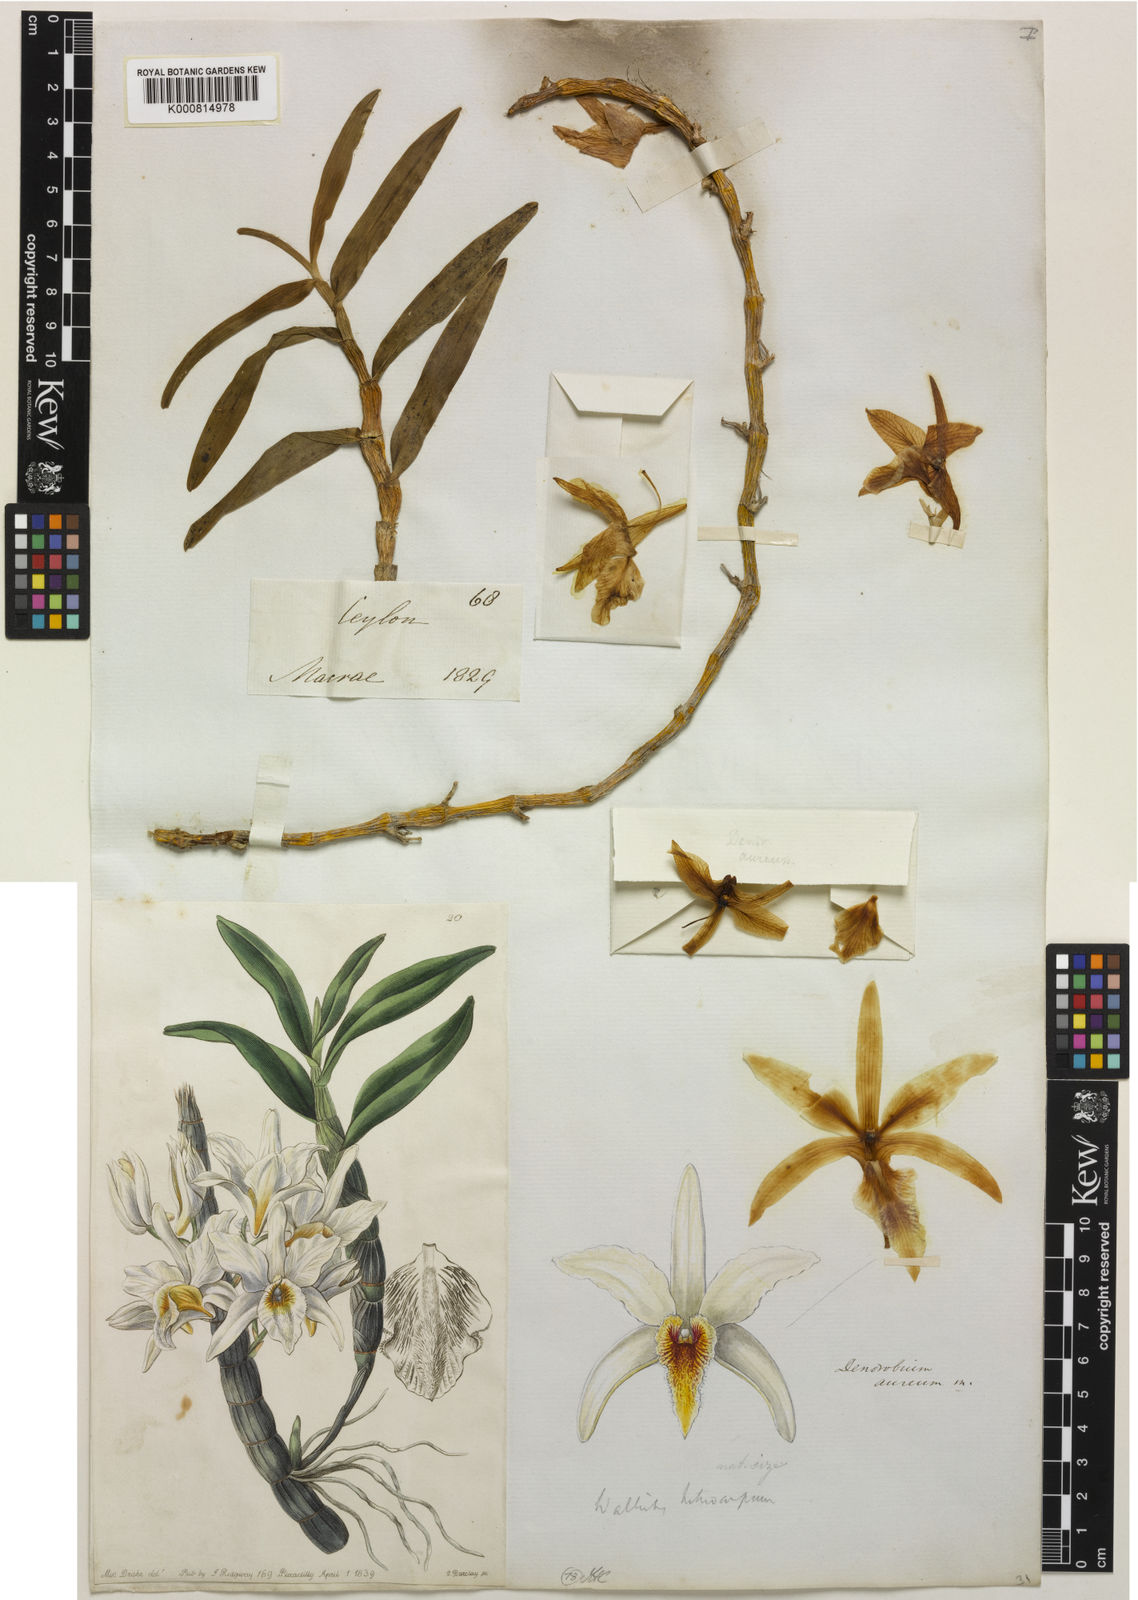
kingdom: Plantae
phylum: Tracheophyta
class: Liliopsida
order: Asparagales
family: Orchidaceae
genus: Dendrobium
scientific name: Dendrobium heterocarpum
